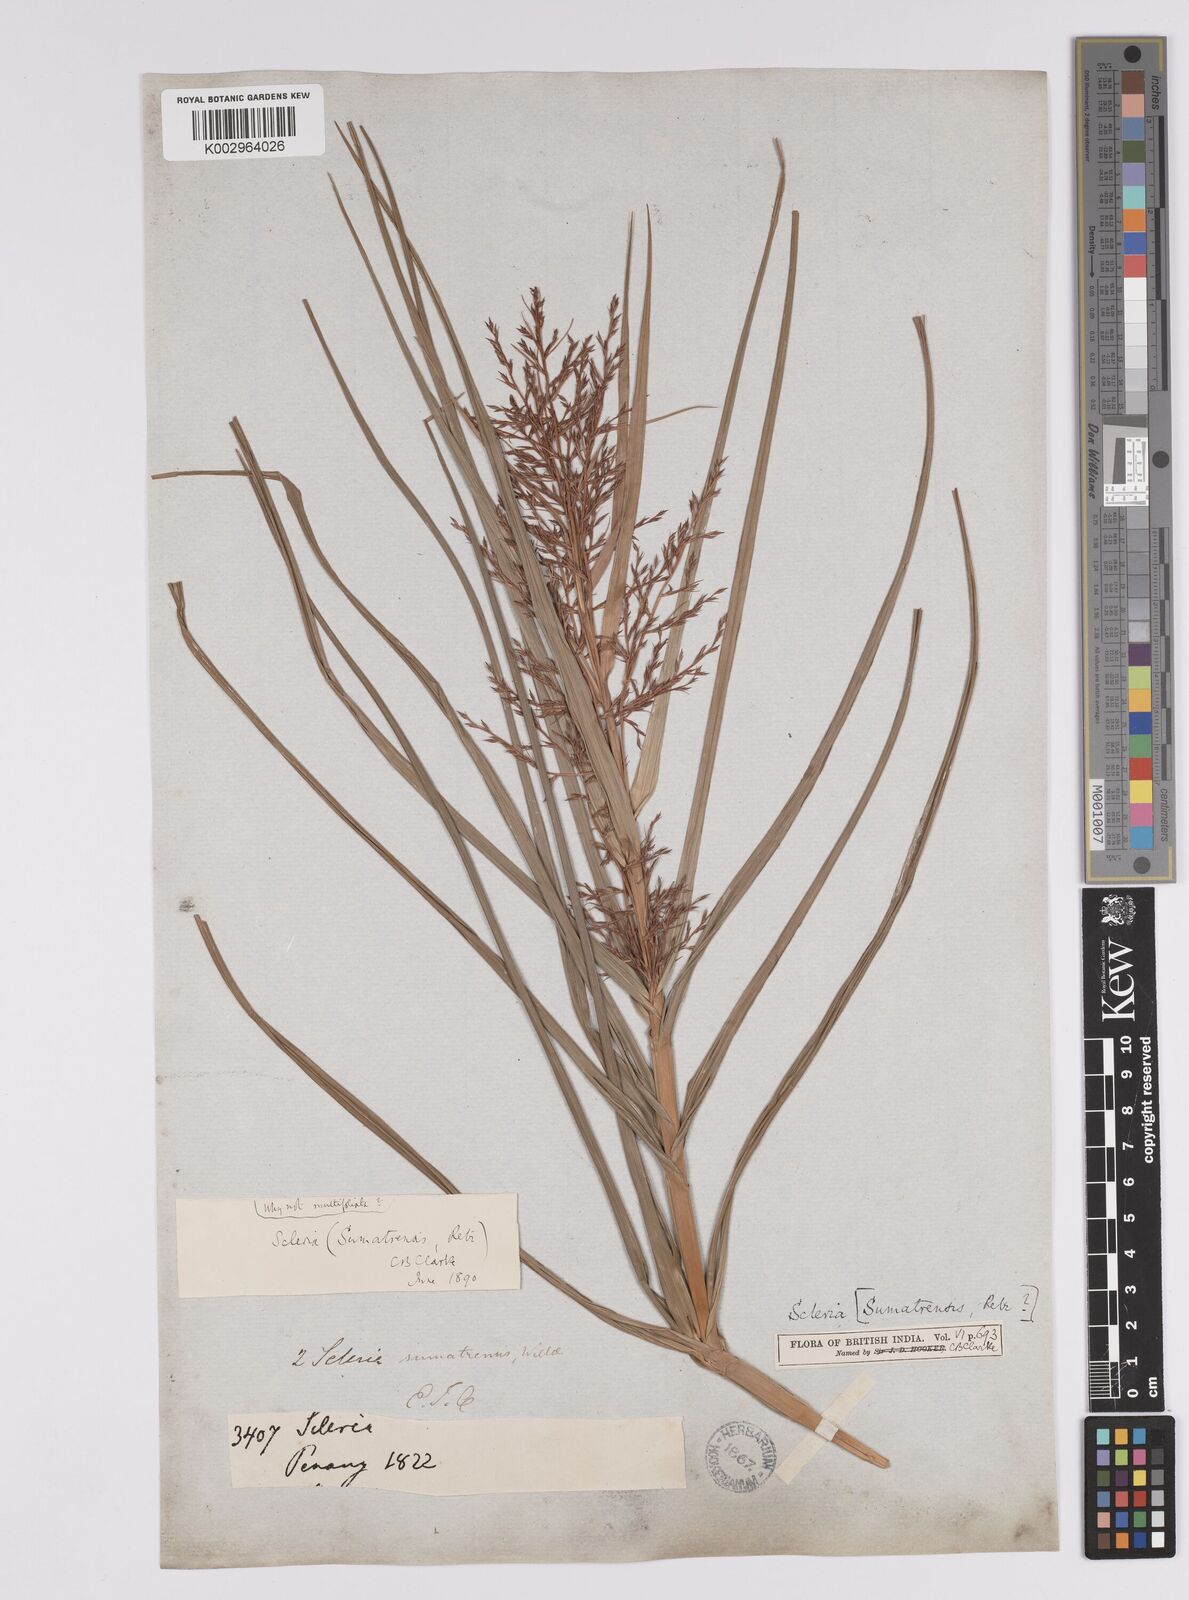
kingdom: Plantae
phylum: Tracheophyta
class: Liliopsida
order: Poales
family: Cyperaceae
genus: Scleria
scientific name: Scleria sumatrensis
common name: Sumatran scleria
